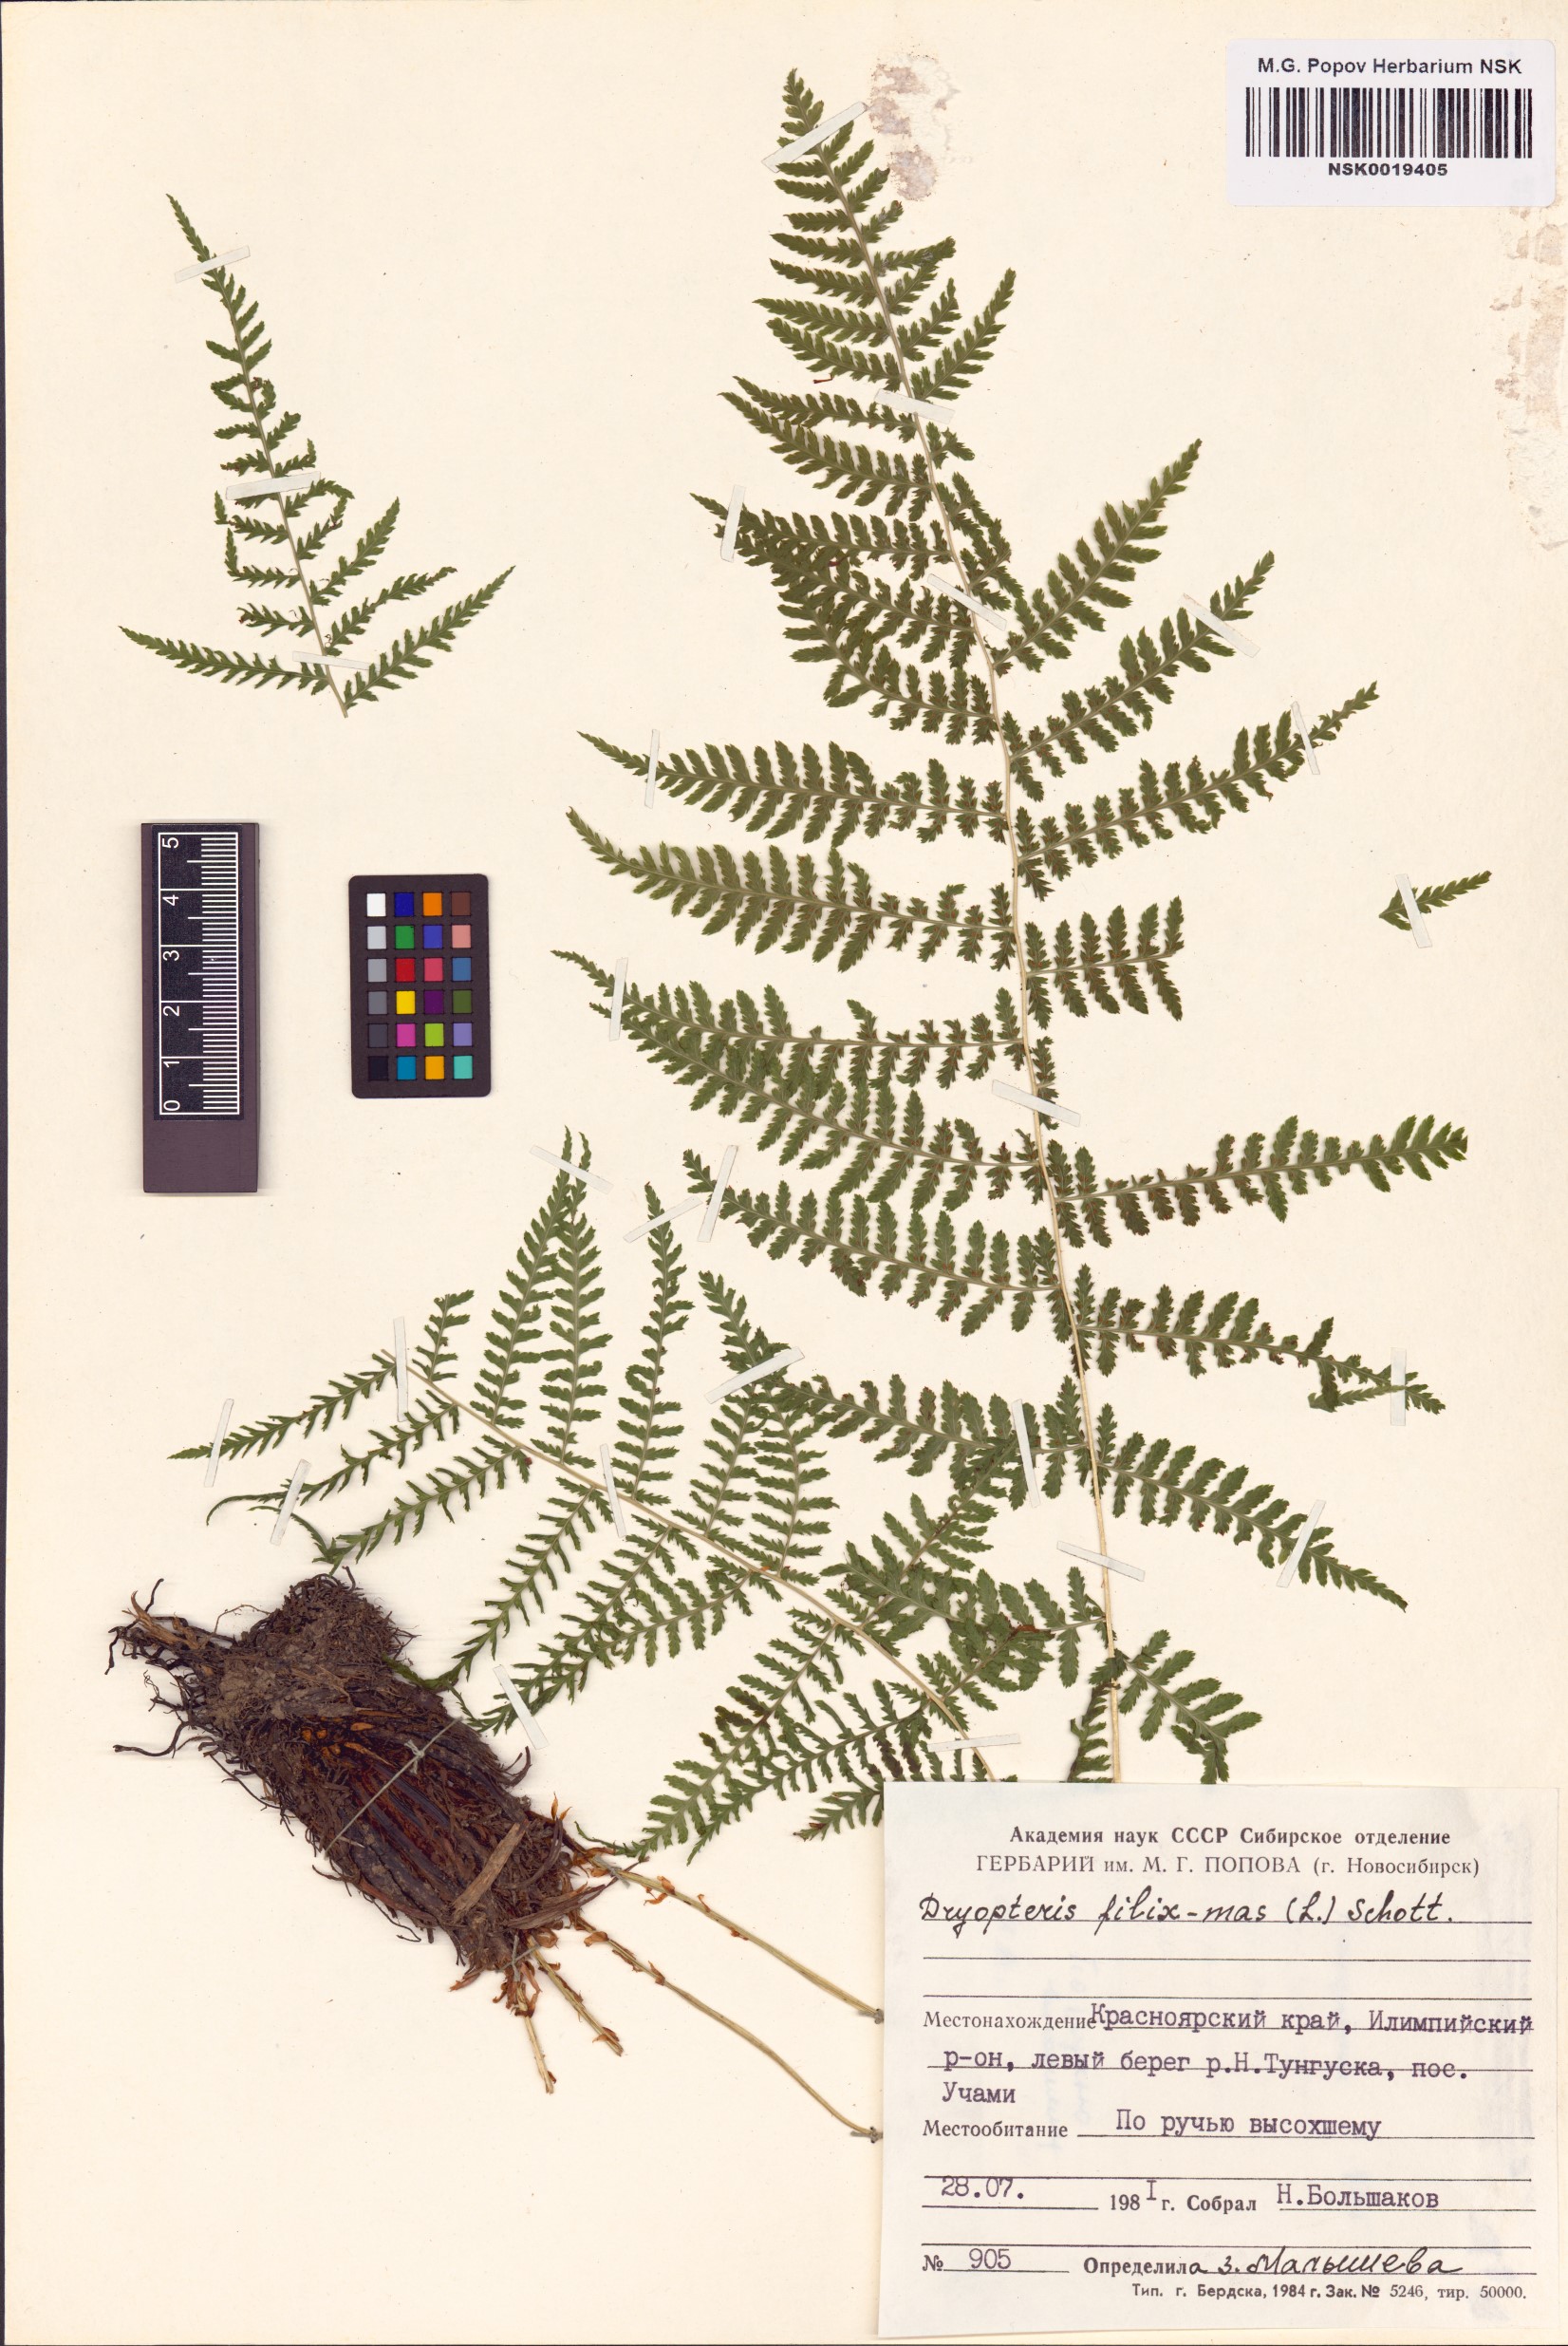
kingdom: Plantae
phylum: Tracheophyta
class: Polypodiopsida
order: Polypodiales
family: Dryopteridaceae
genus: Dryopteris
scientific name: Dryopteris filix-mas
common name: Male fern
